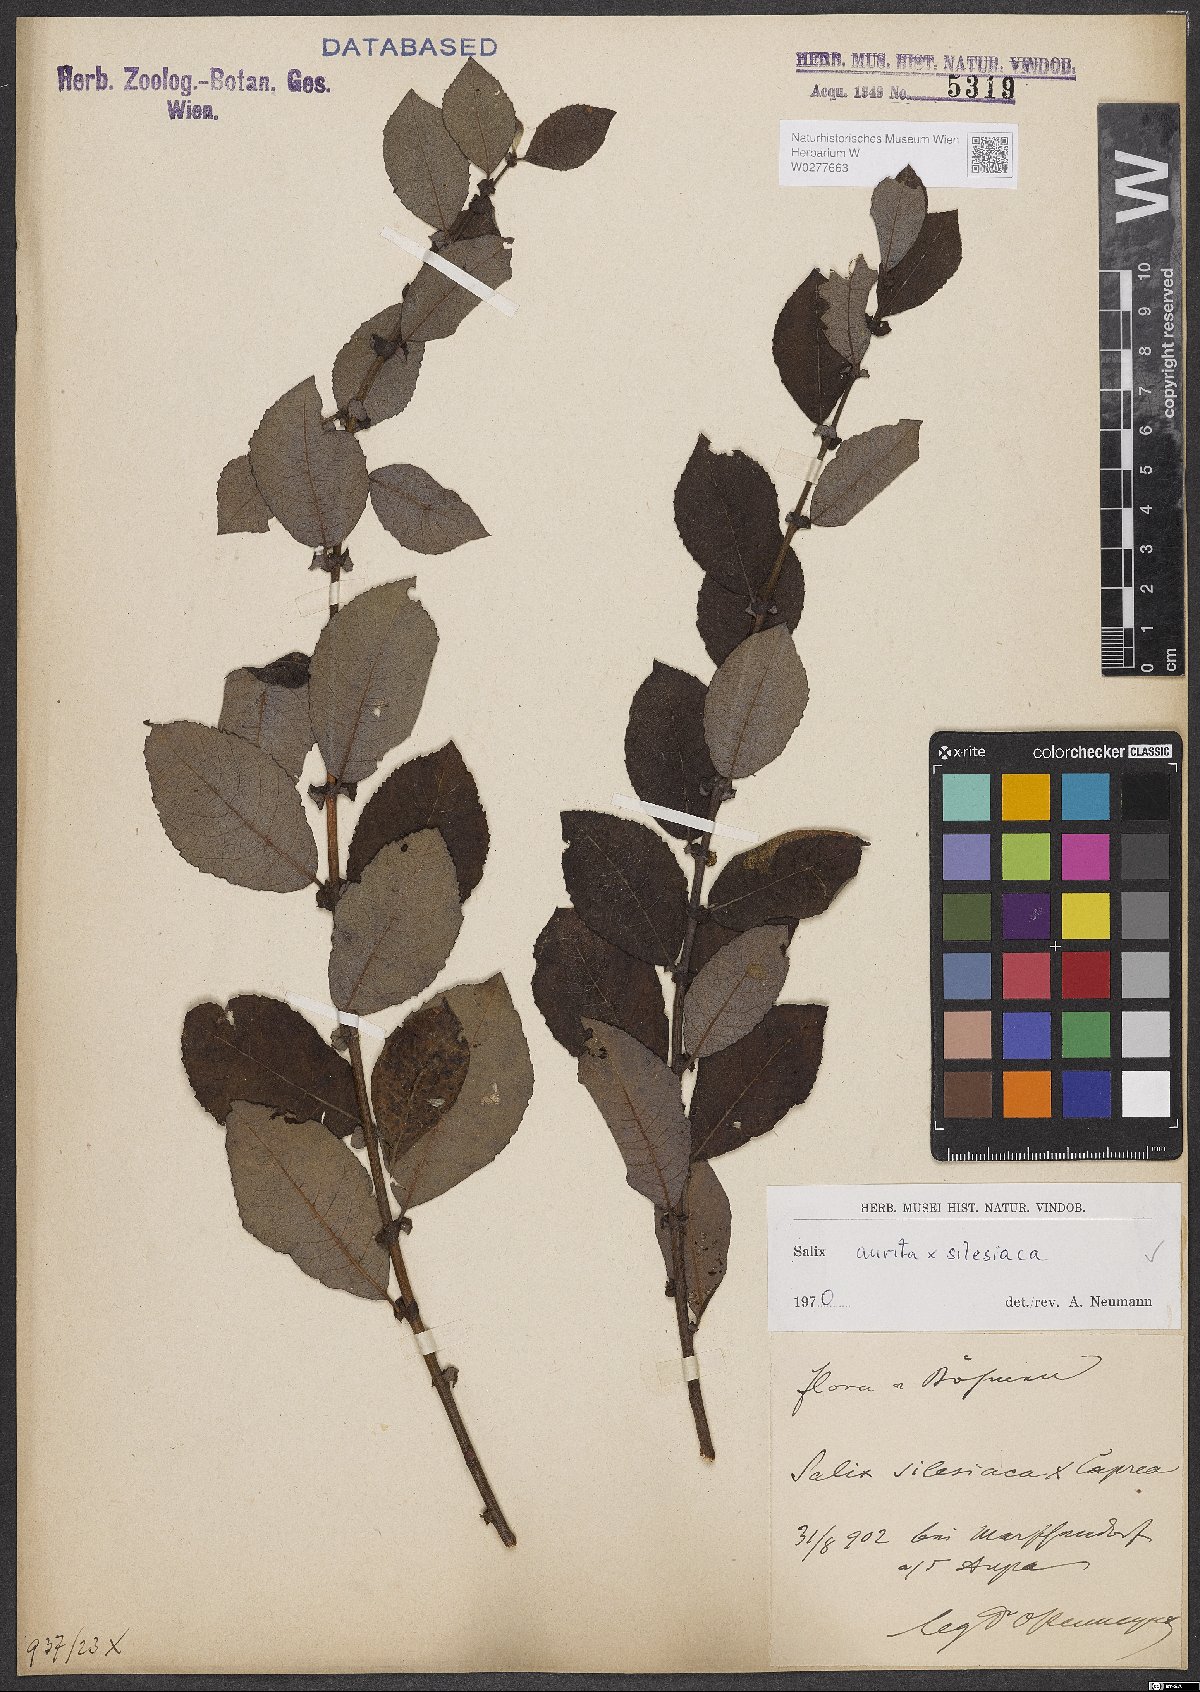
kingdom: Plantae
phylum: Tracheophyta
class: Magnoliopsida
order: Malpighiales
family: Salicaceae
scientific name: Salicaceae
